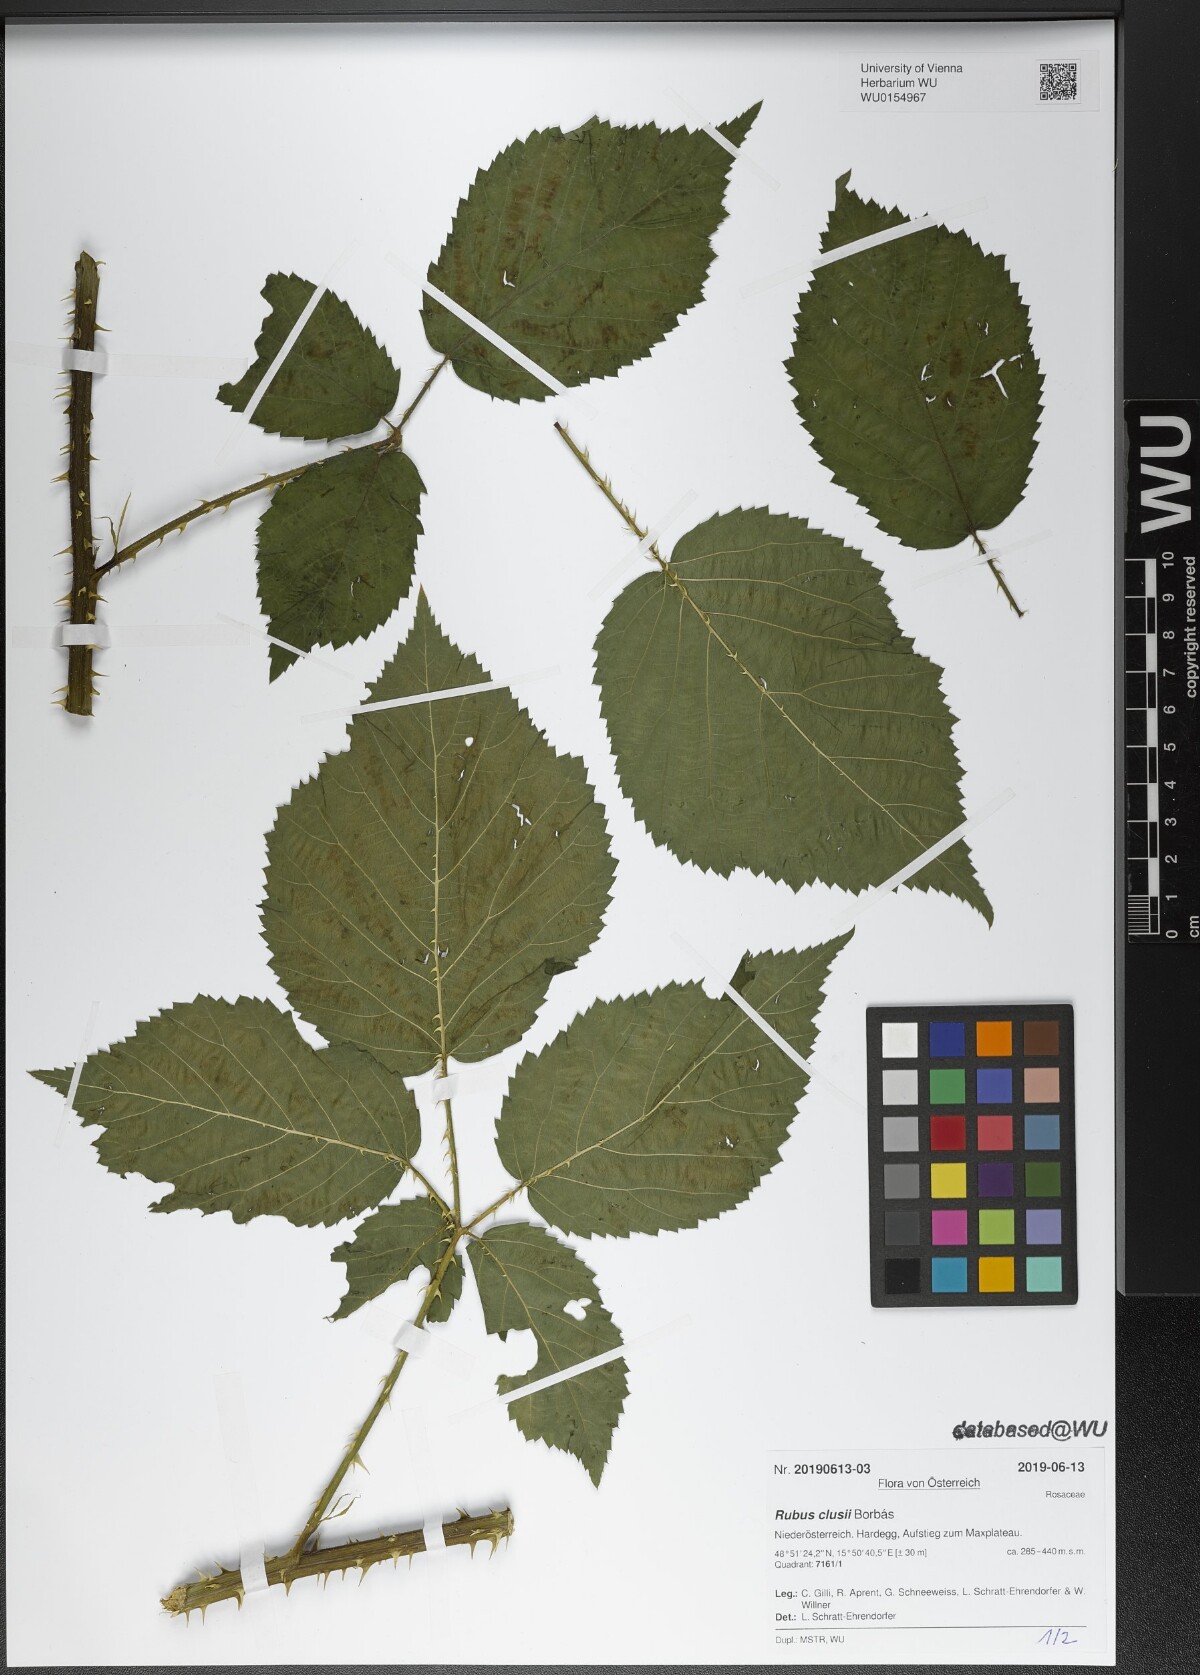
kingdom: Plantae
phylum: Tracheophyta
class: Magnoliopsida
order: Rosales
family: Rosaceae
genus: Rubus
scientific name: Rubus clusii
